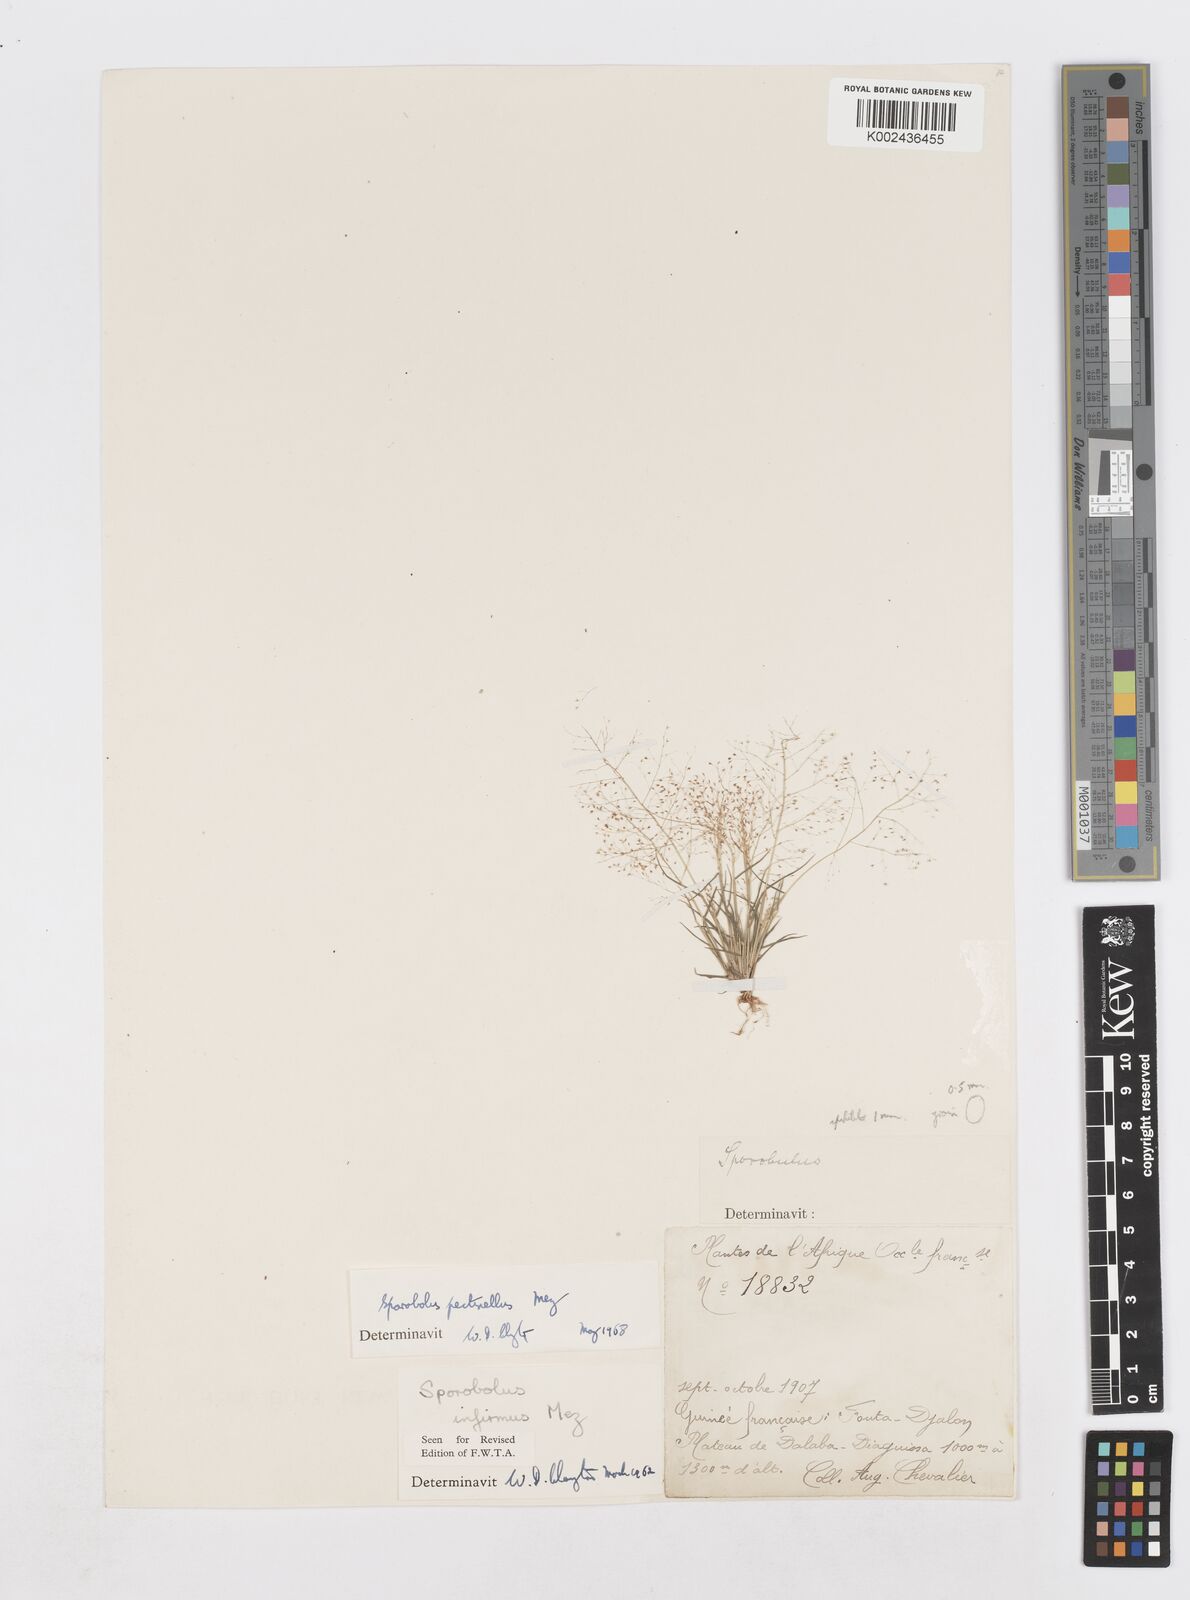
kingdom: Plantae
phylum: Tracheophyta
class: Liliopsida
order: Poales
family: Poaceae
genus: Sporobolus
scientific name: Sporobolus pectinellus
